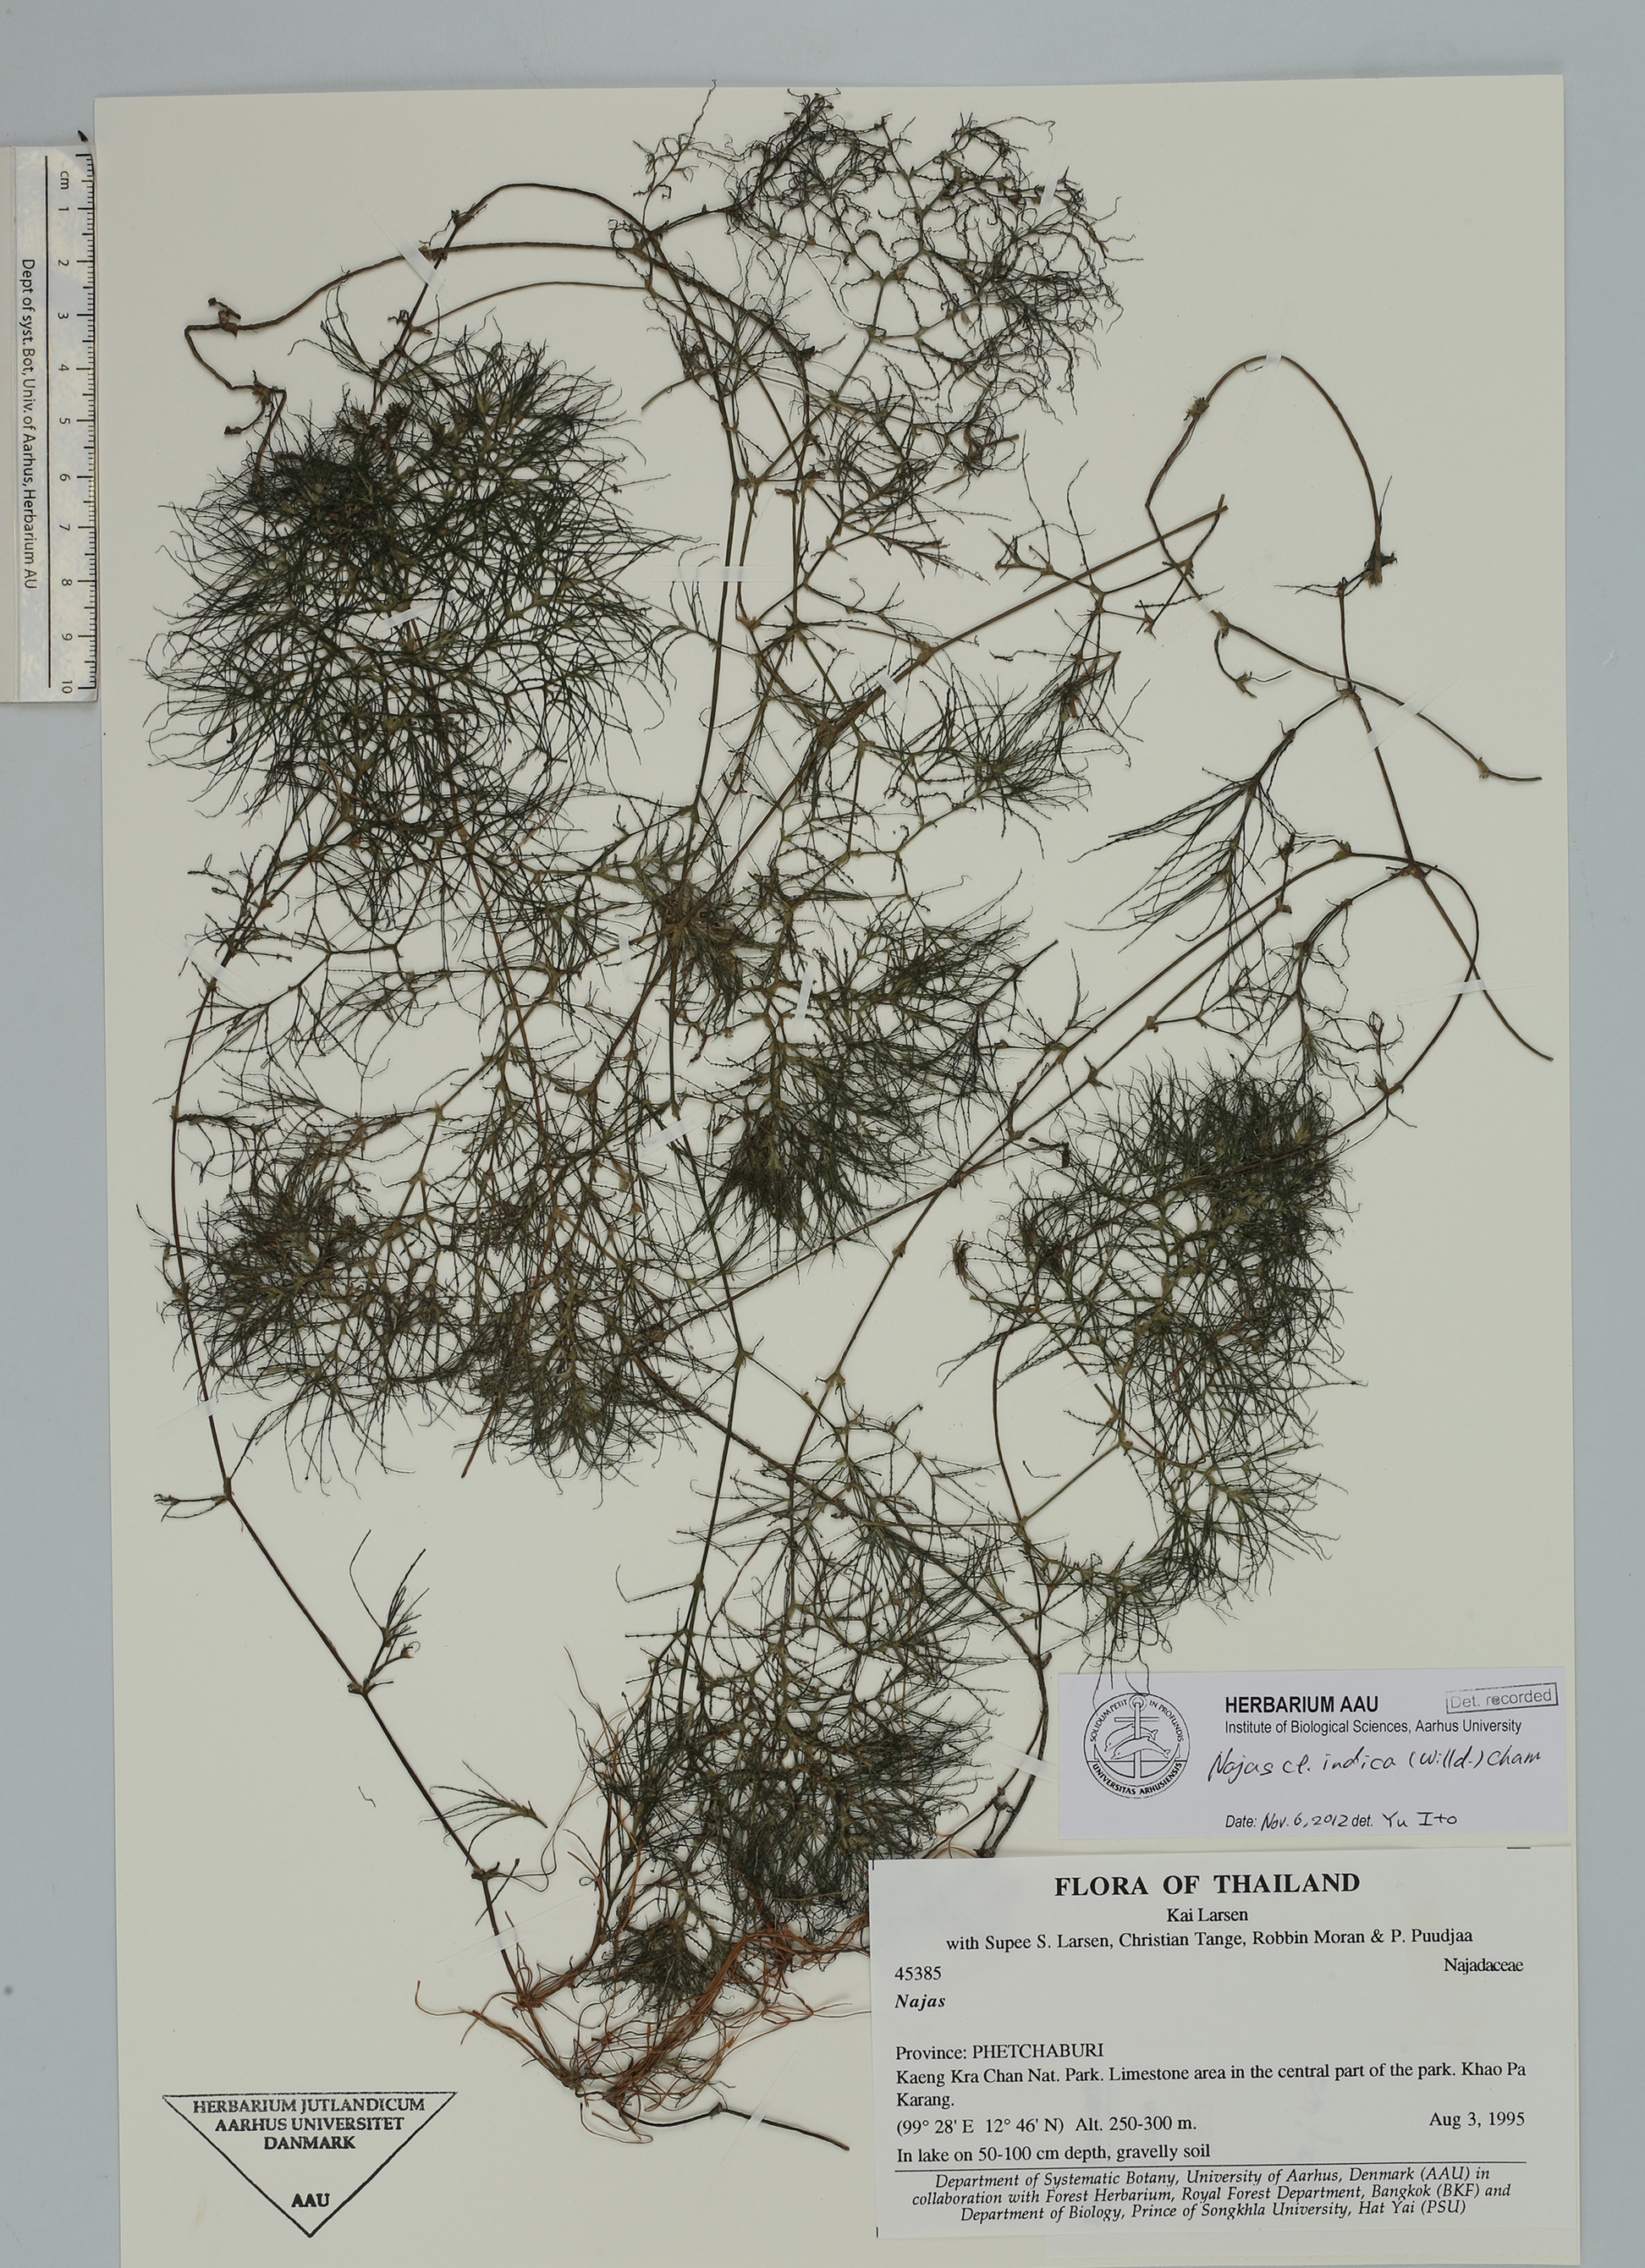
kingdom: Plantae
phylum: Tracheophyta
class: Liliopsida
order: Alismatales
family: Hydrocharitaceae
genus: Najas
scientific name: Najas indica
